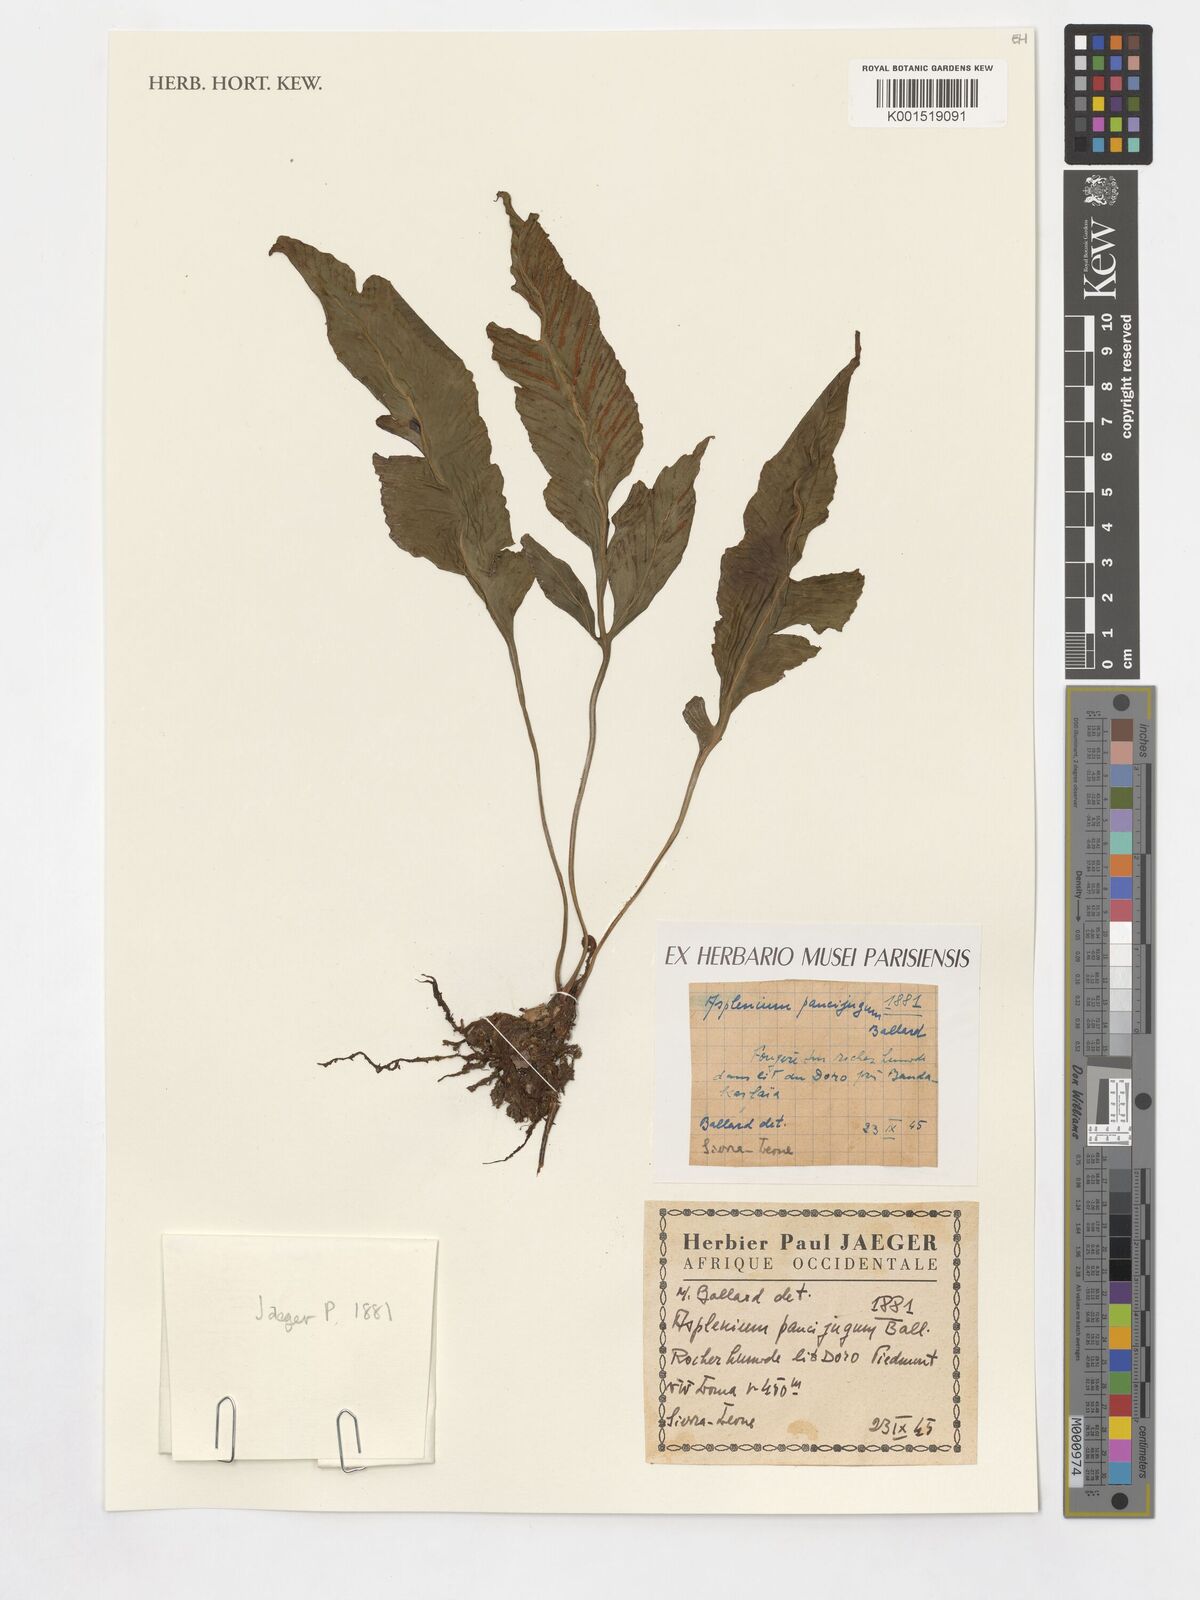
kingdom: Plantae
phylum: Tracheophyta
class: Polypodiopsida
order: Polypodiales
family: Aspleniaceae
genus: Asplenium
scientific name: Asplenium variabile
